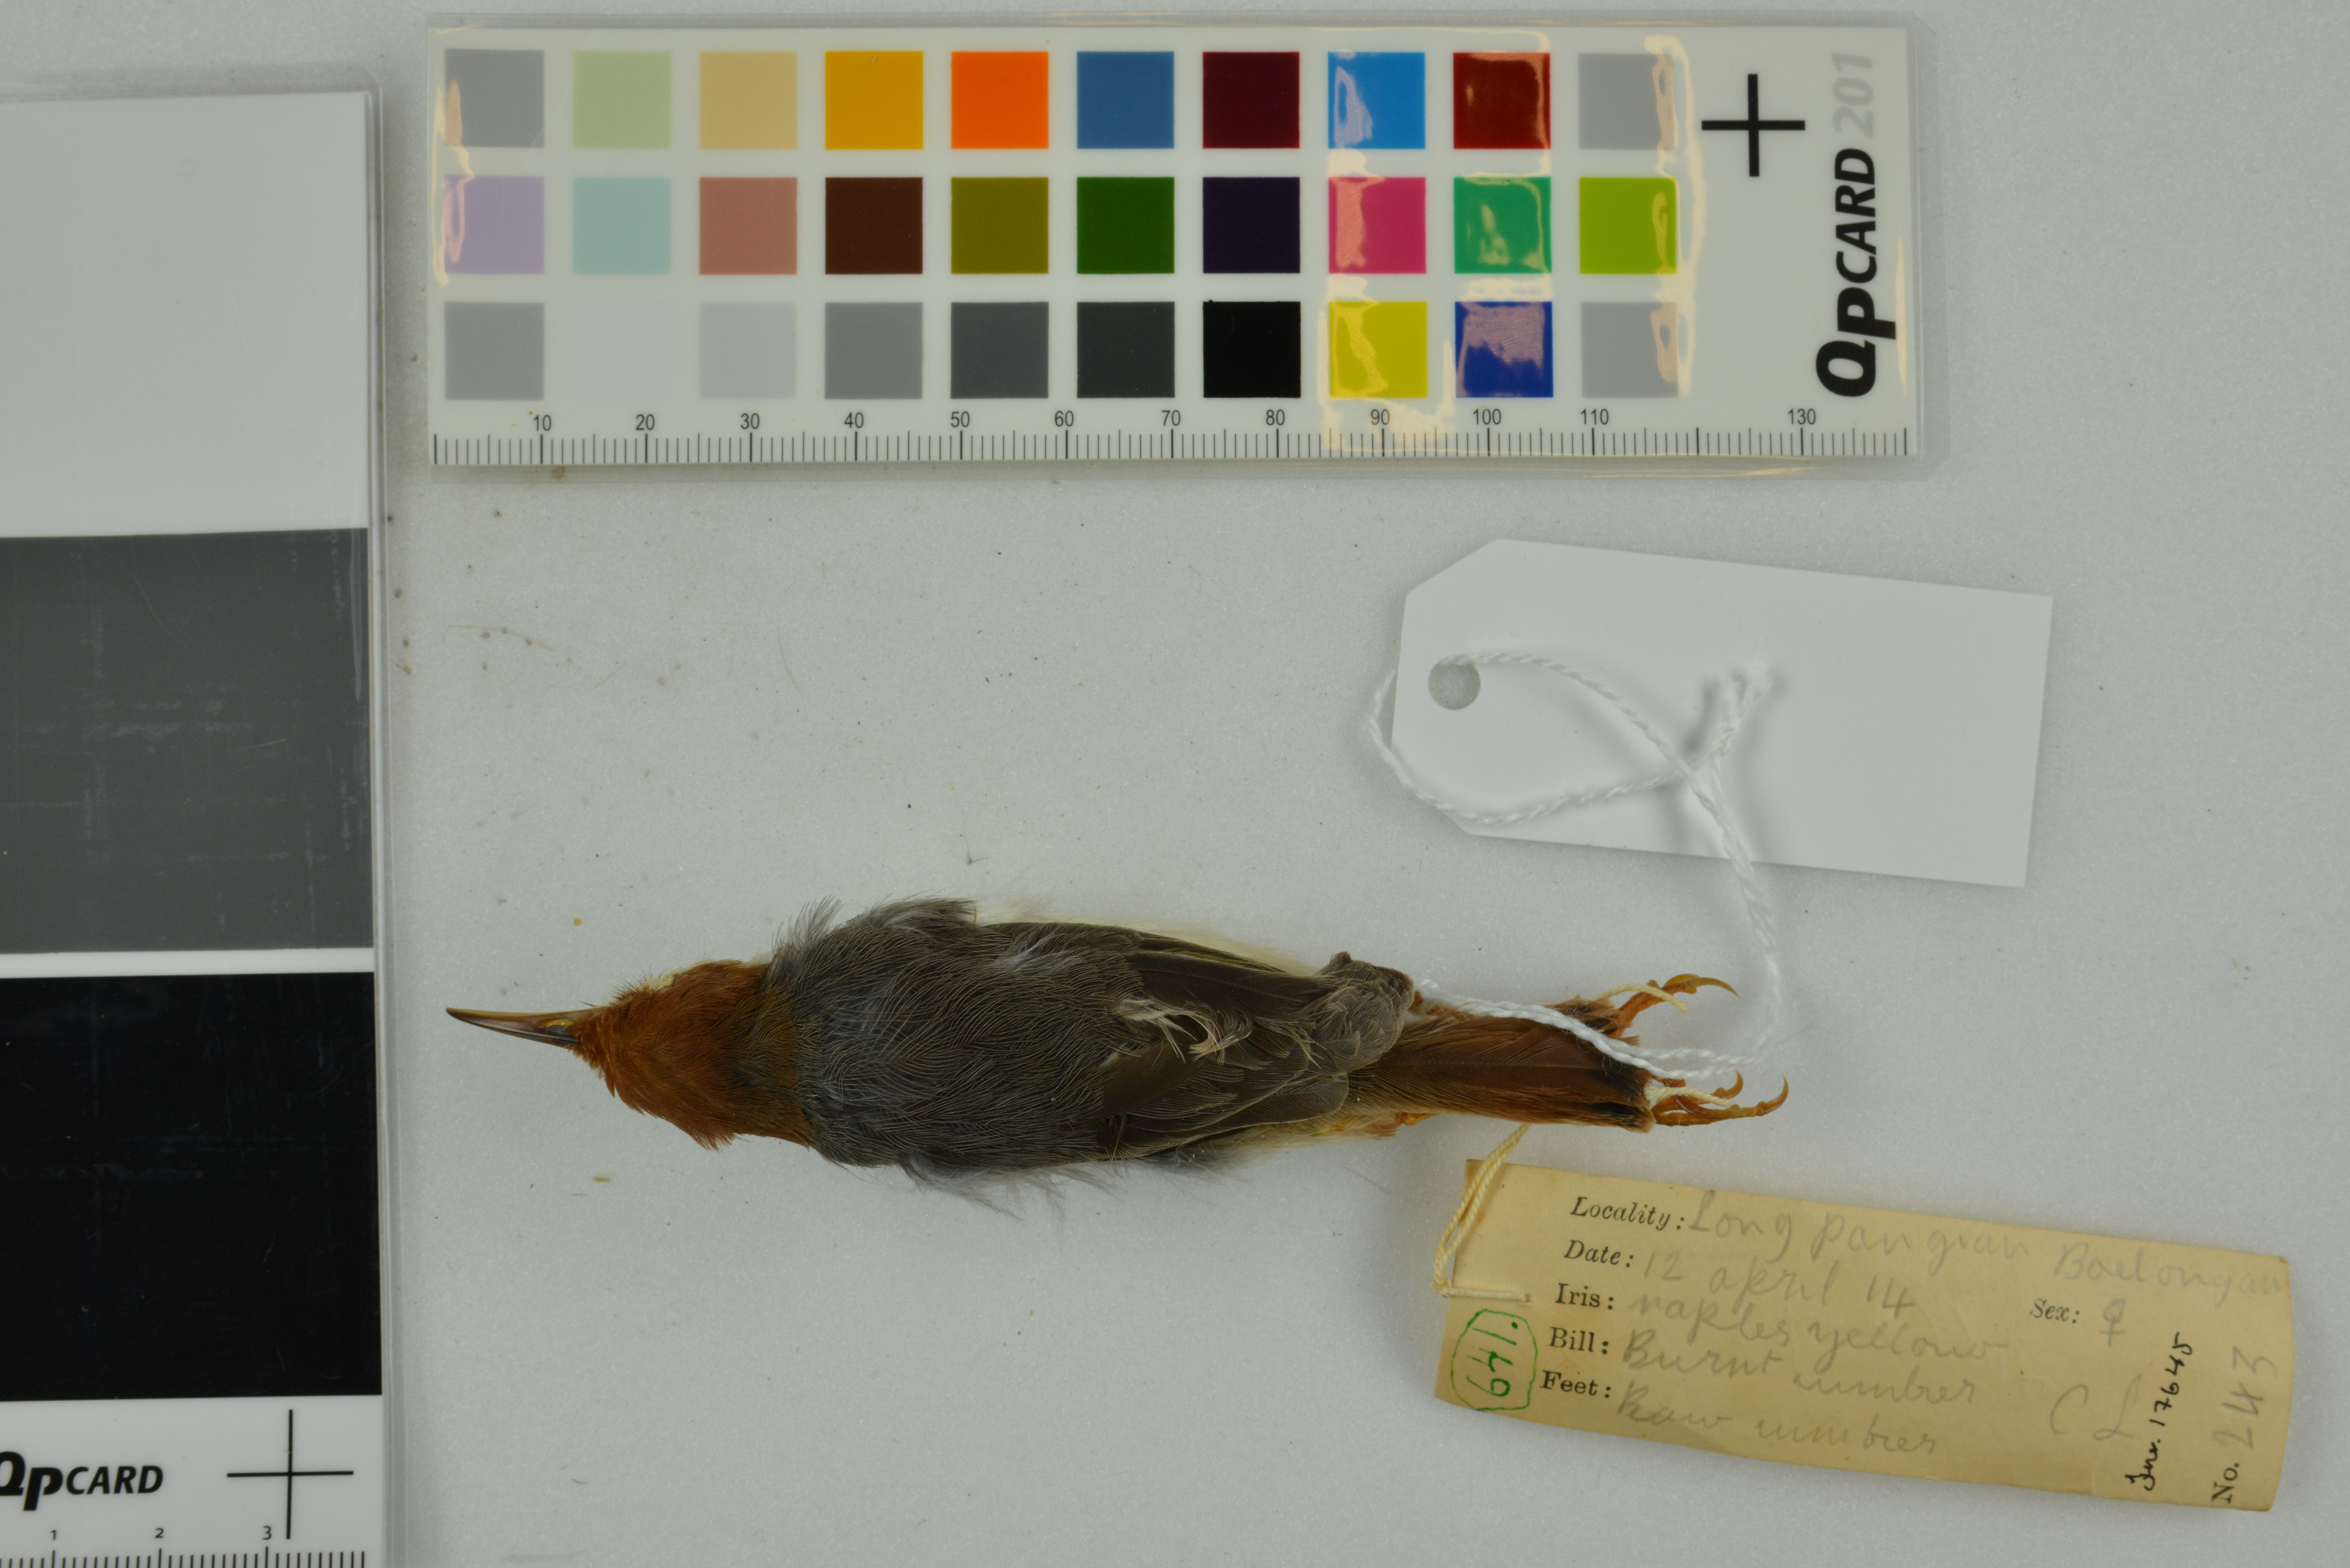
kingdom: Animalia
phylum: Chordata
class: Aves
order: Passeriformes
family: Cisticolidae
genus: Orthotomus
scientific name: Orthotomus sericeus
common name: Rufous-tailed tailorbird
